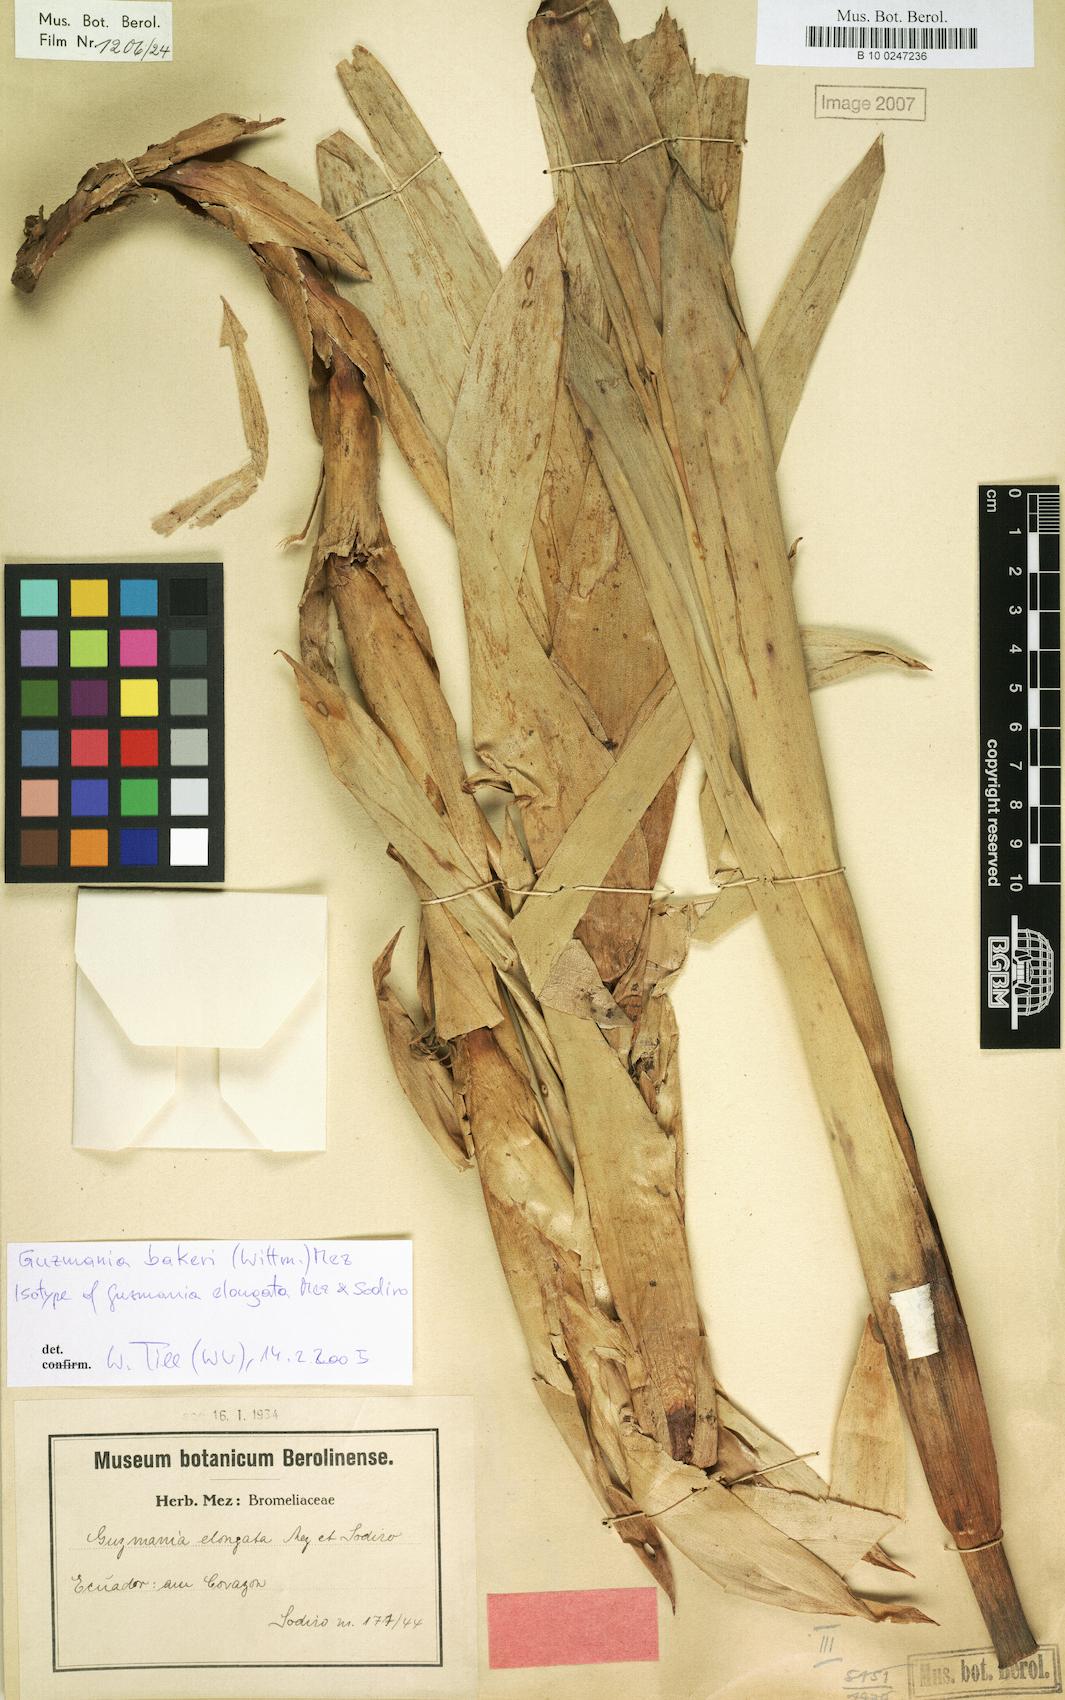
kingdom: Plantae
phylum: Tracheophyta
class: Liliopsida
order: Poales
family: Bromeliaceae
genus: Guzmania
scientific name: Guzmania bakeri
